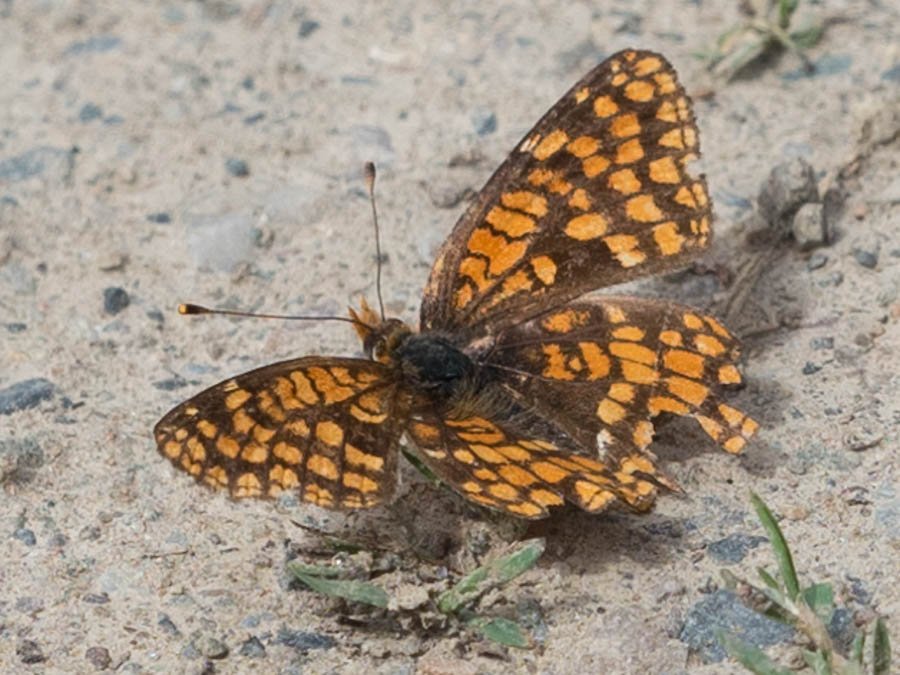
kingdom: Animalia
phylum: Arthropoda
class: Insecta
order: Lepidoptera
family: Nymphalidae
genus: Chlosyne
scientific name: Chlosyne palla
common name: Northern Checkerspot
